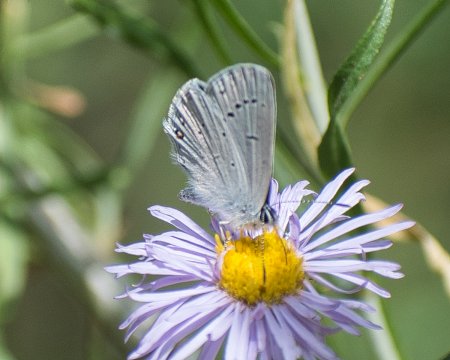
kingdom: Animalia
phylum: Arthropoda
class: Insecta
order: Lepidoptera
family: Lycaenidae
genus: Elkalyce
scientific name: Elkalyce amyntula
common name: Western Tailed-Blue
